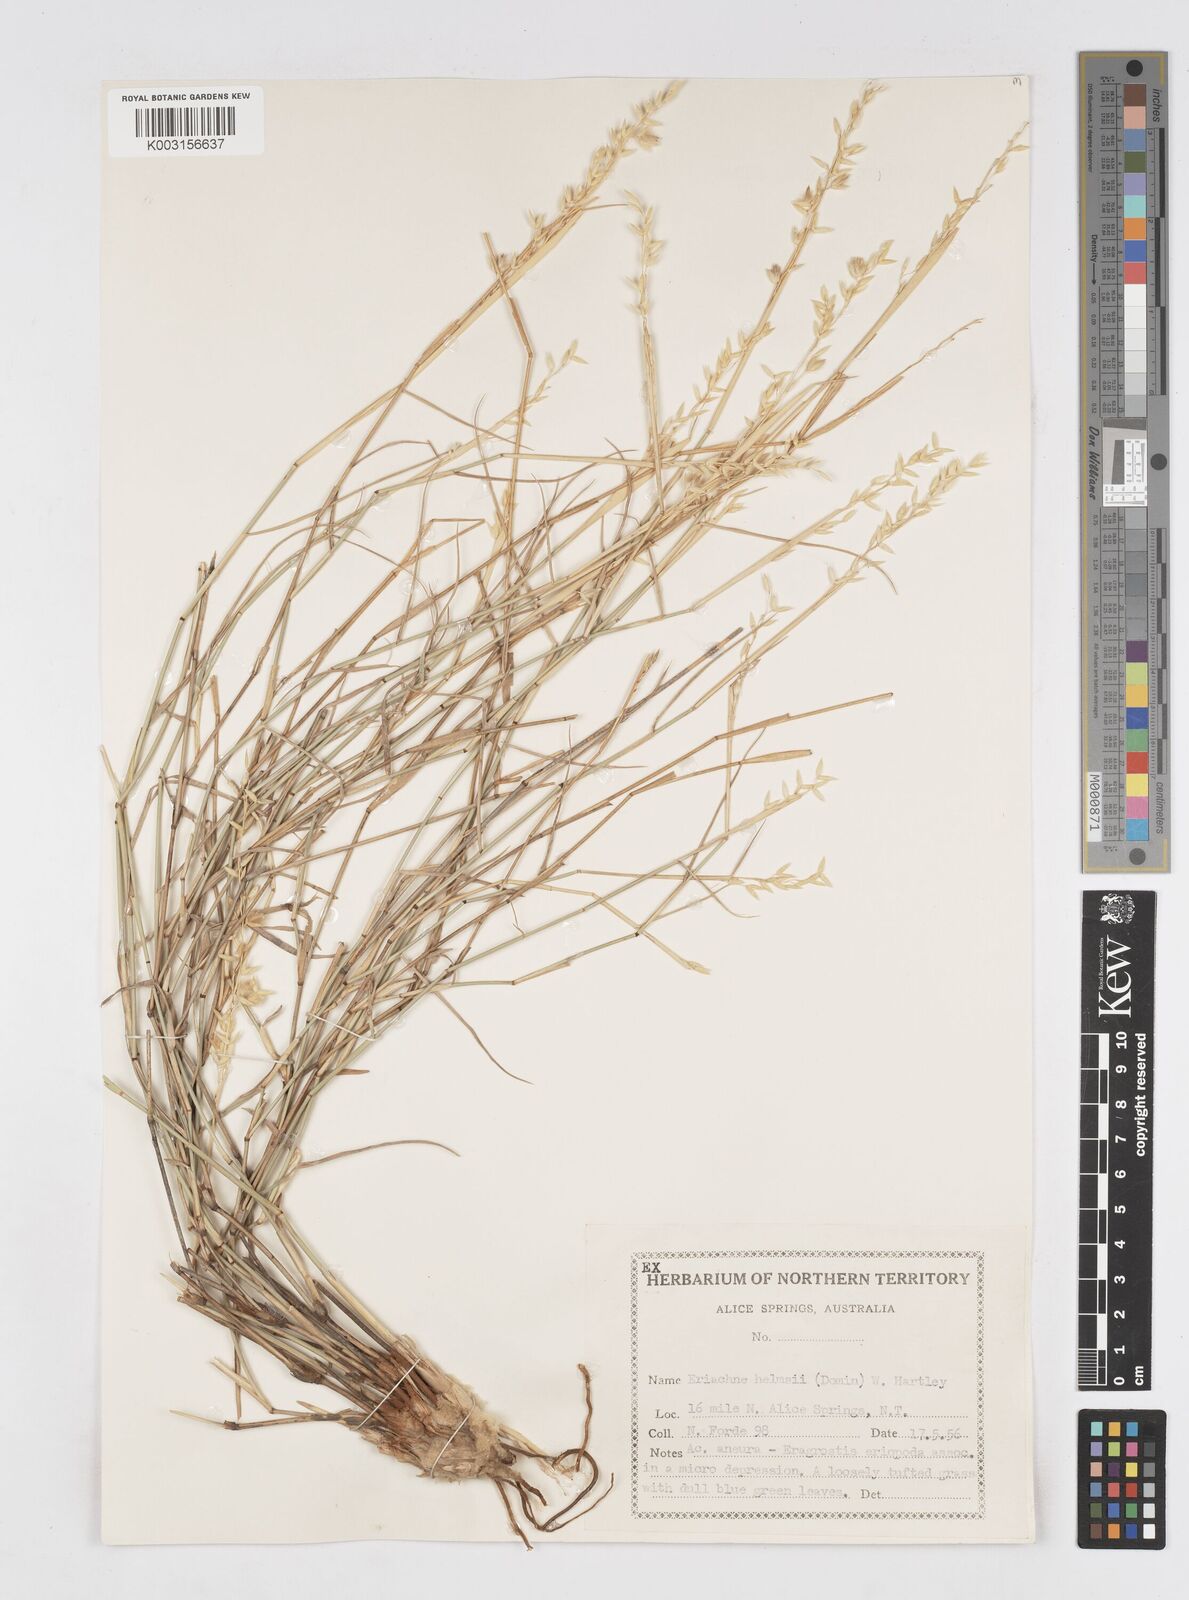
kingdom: Plantae
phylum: Tracheophyta
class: Liliopsida
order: Poales
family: Poaceae
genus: Eriachne
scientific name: Eriachne helmsii
